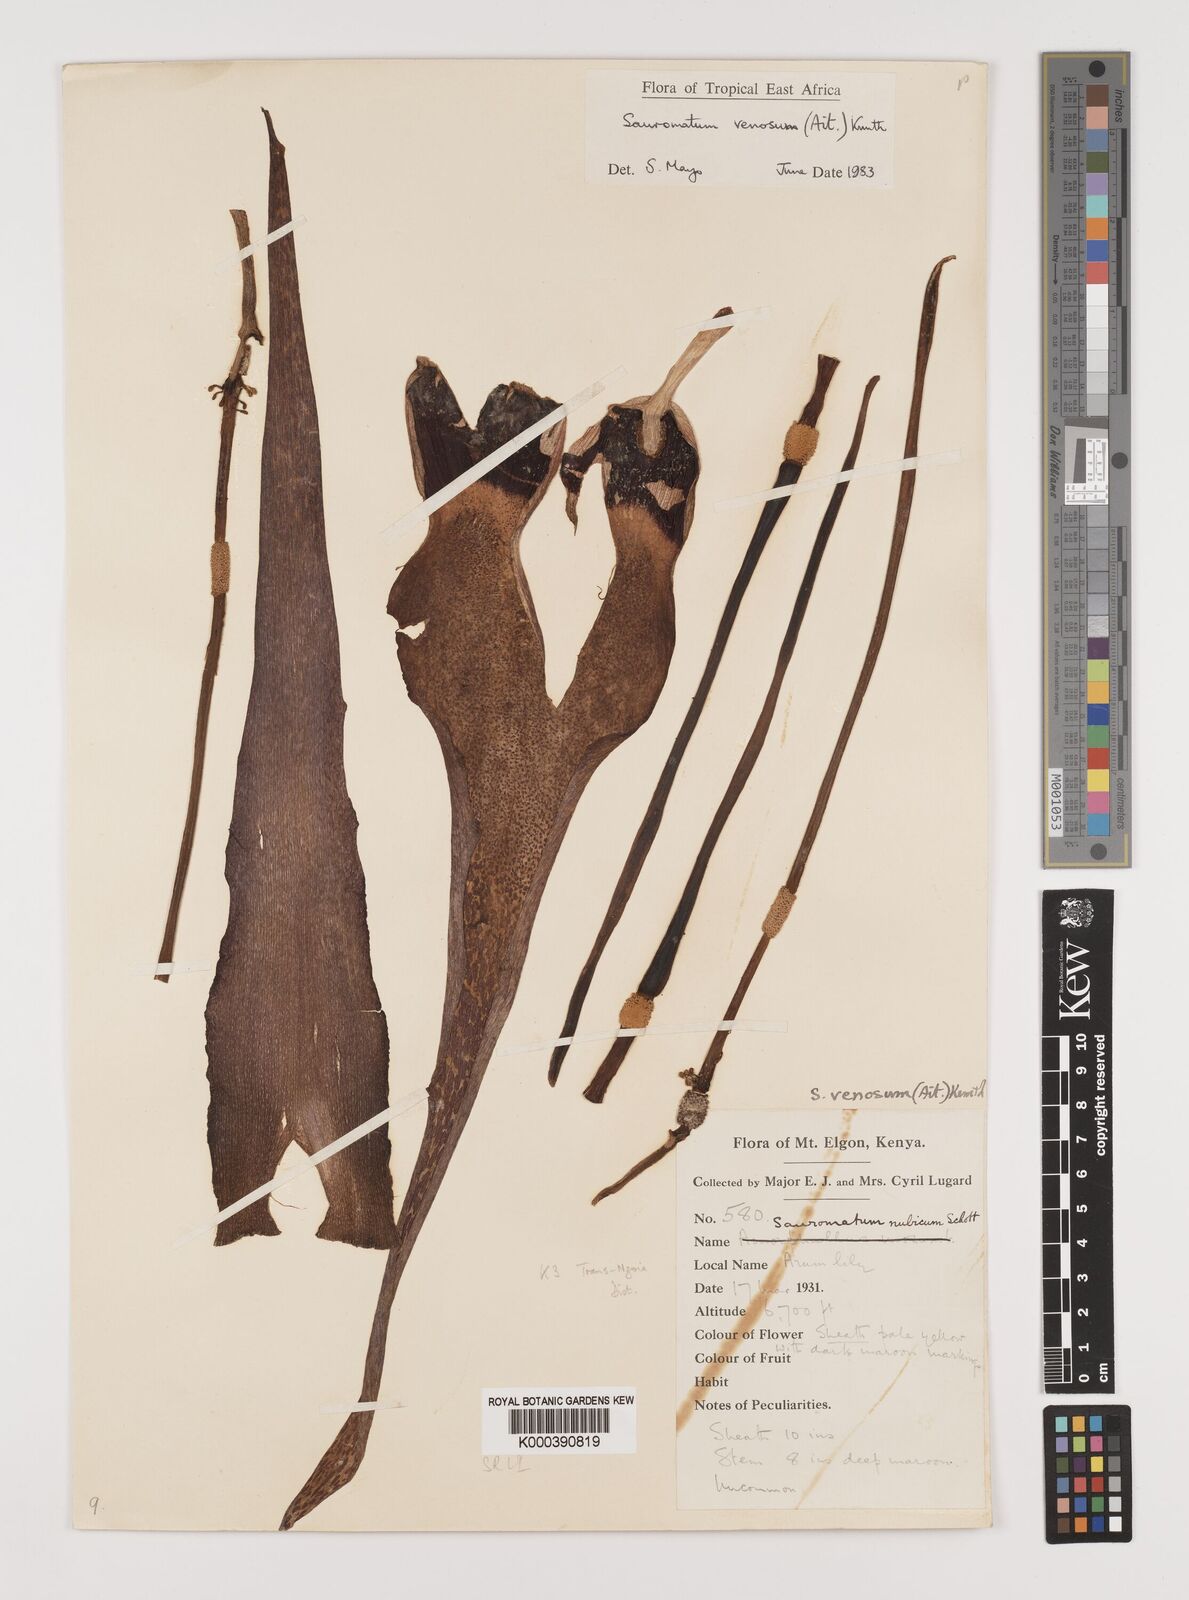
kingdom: Plantae
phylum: Tracheophyta
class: Liliopsida
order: Alismatales
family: Araceae
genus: Sauromatum
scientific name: Sauromatum venosum
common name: Voodoo lily
